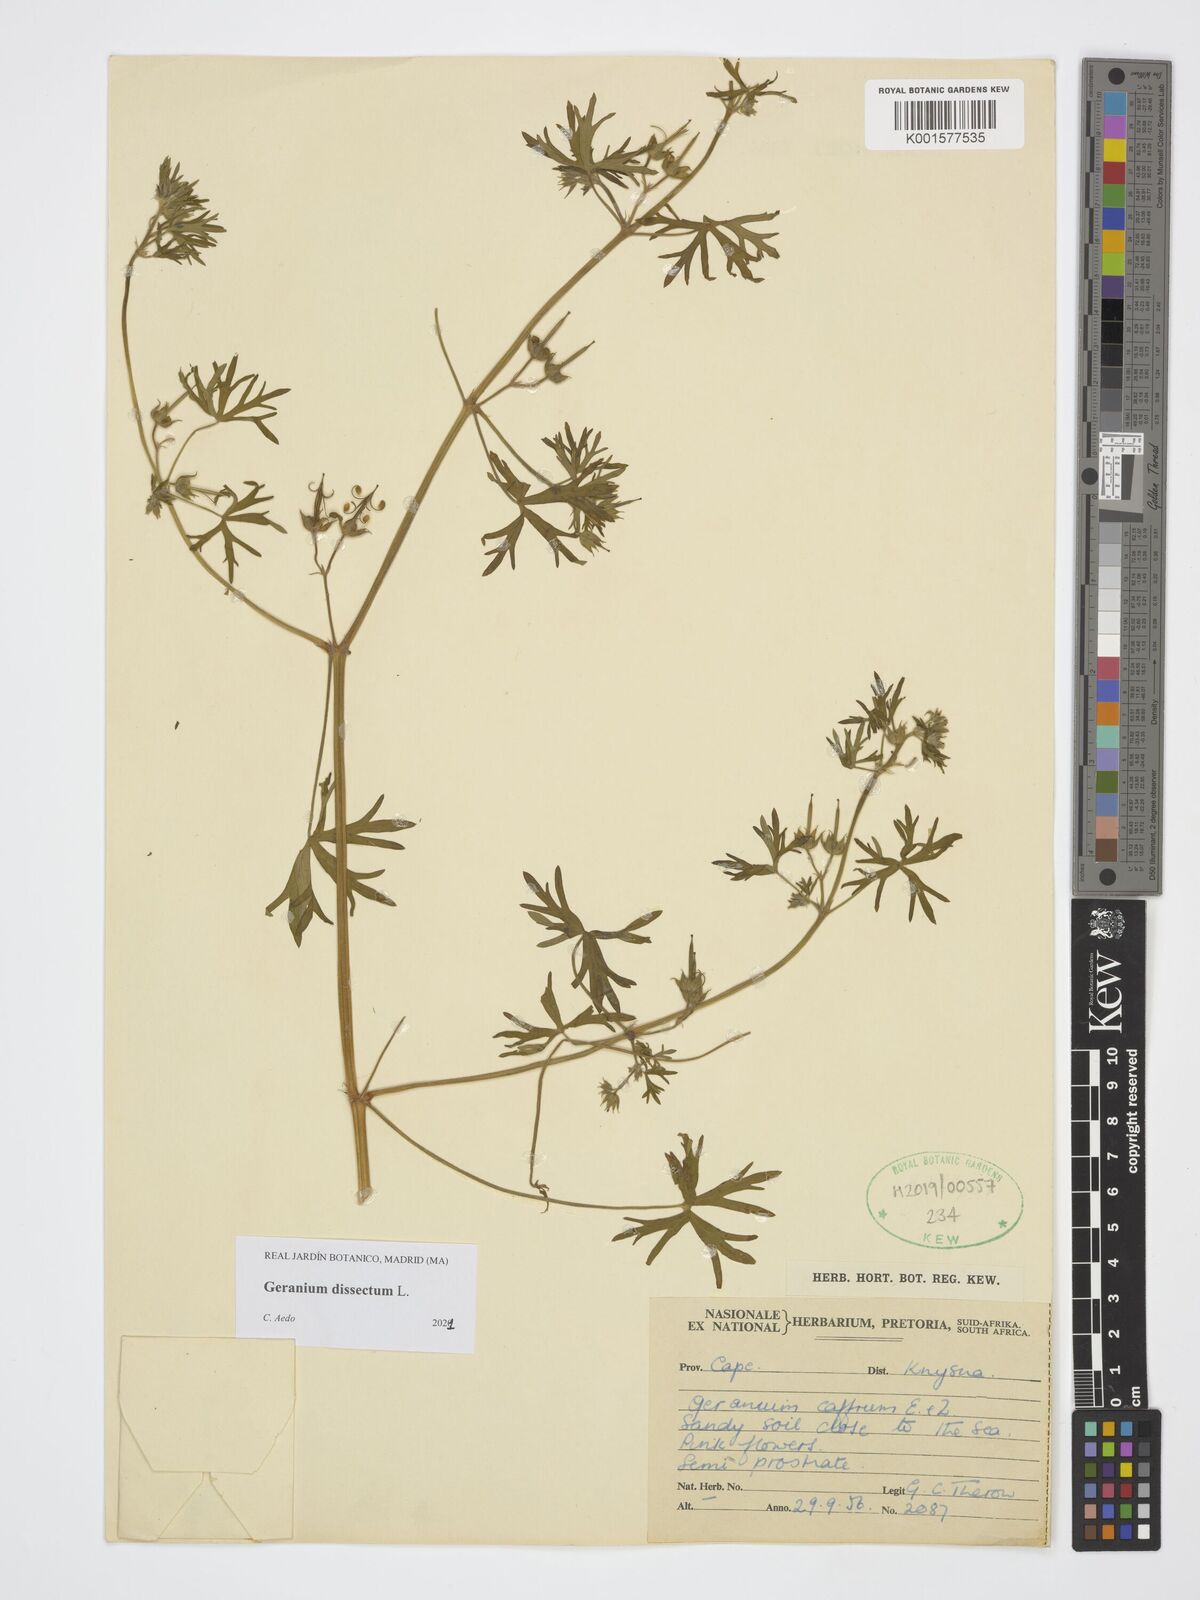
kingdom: Plantae
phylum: Tracheophyta
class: Magnoliopsida
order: Geraniales
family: Geraniaceae
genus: Geranium
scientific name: Geranium dissectum
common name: Cut-leaved crane's-bill
